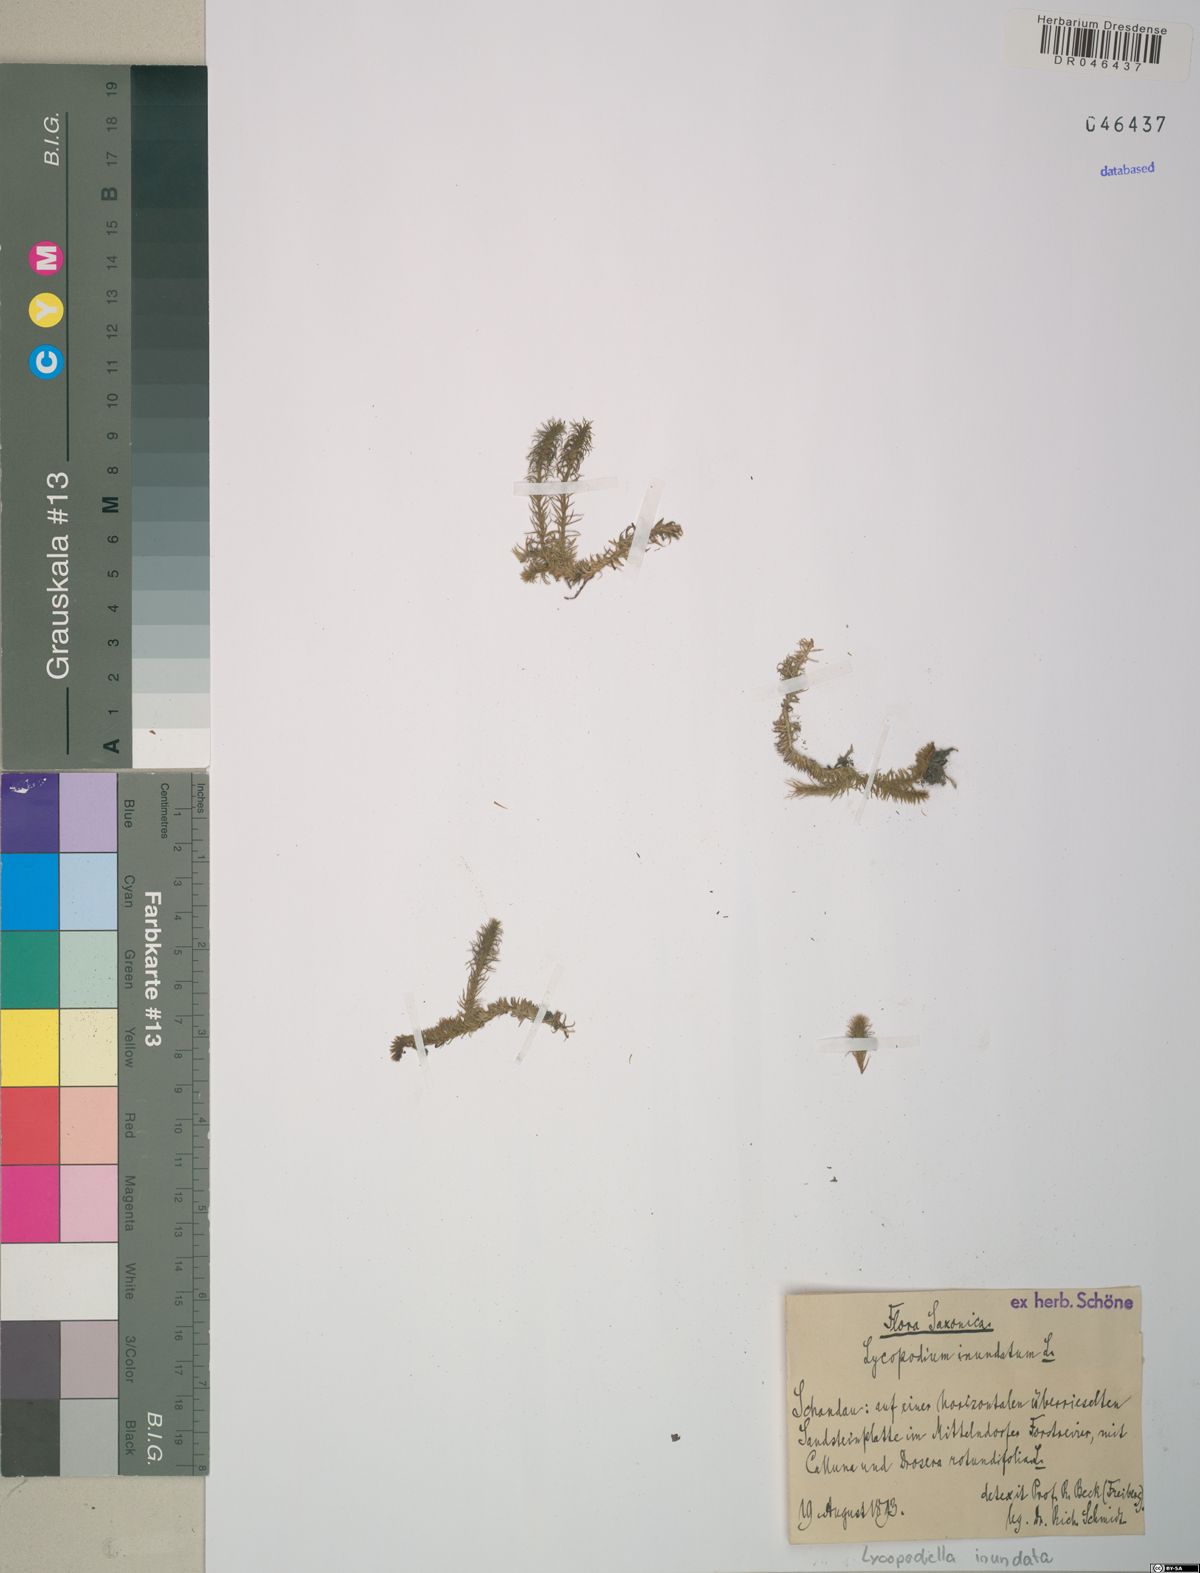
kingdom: Plantae
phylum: Tracheophyta
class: Lycopodiopsida
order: Lycopodiales
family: Lycopodiaceae
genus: Lycopodiella
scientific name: Lycopodiella inundata
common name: Marsh clubmoss
